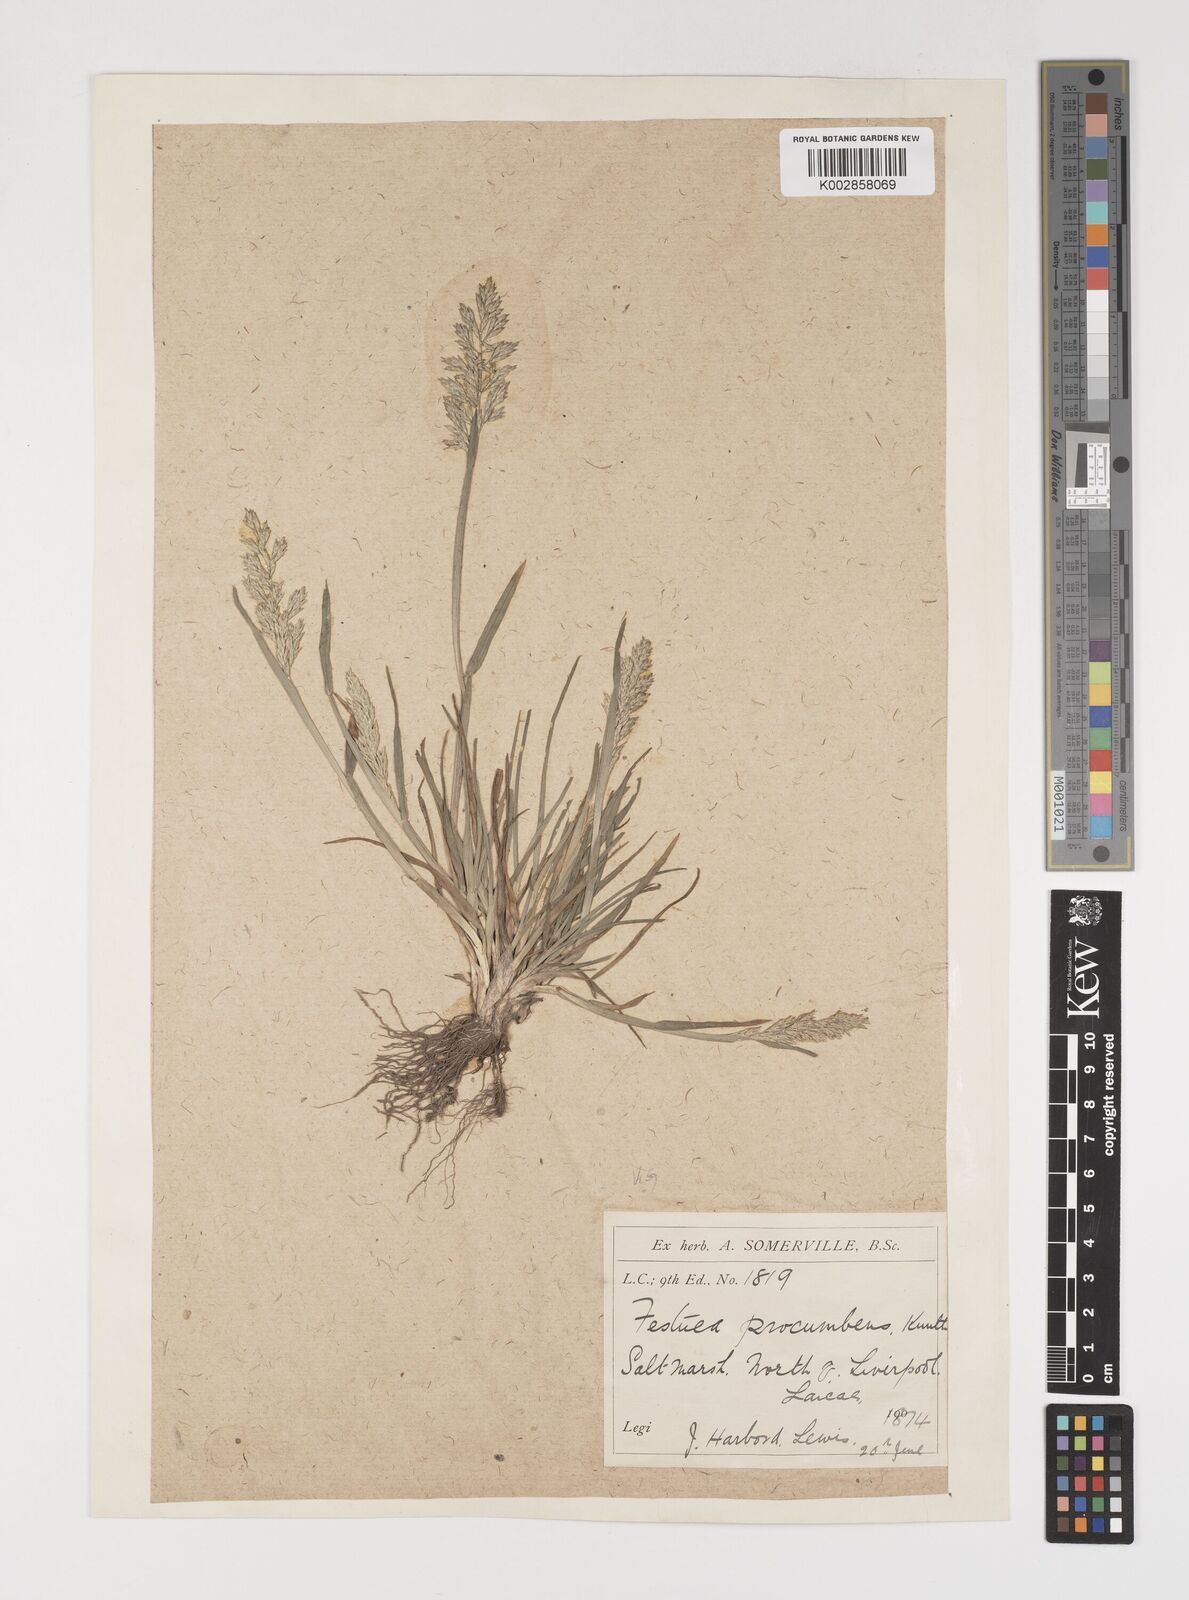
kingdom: Plantae
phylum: Tracheophyta
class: Liliopsida
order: Poales
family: Poaceae
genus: Puccinellia
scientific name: Puccinellia rupestris
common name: Stiff saltmarsh-grass
